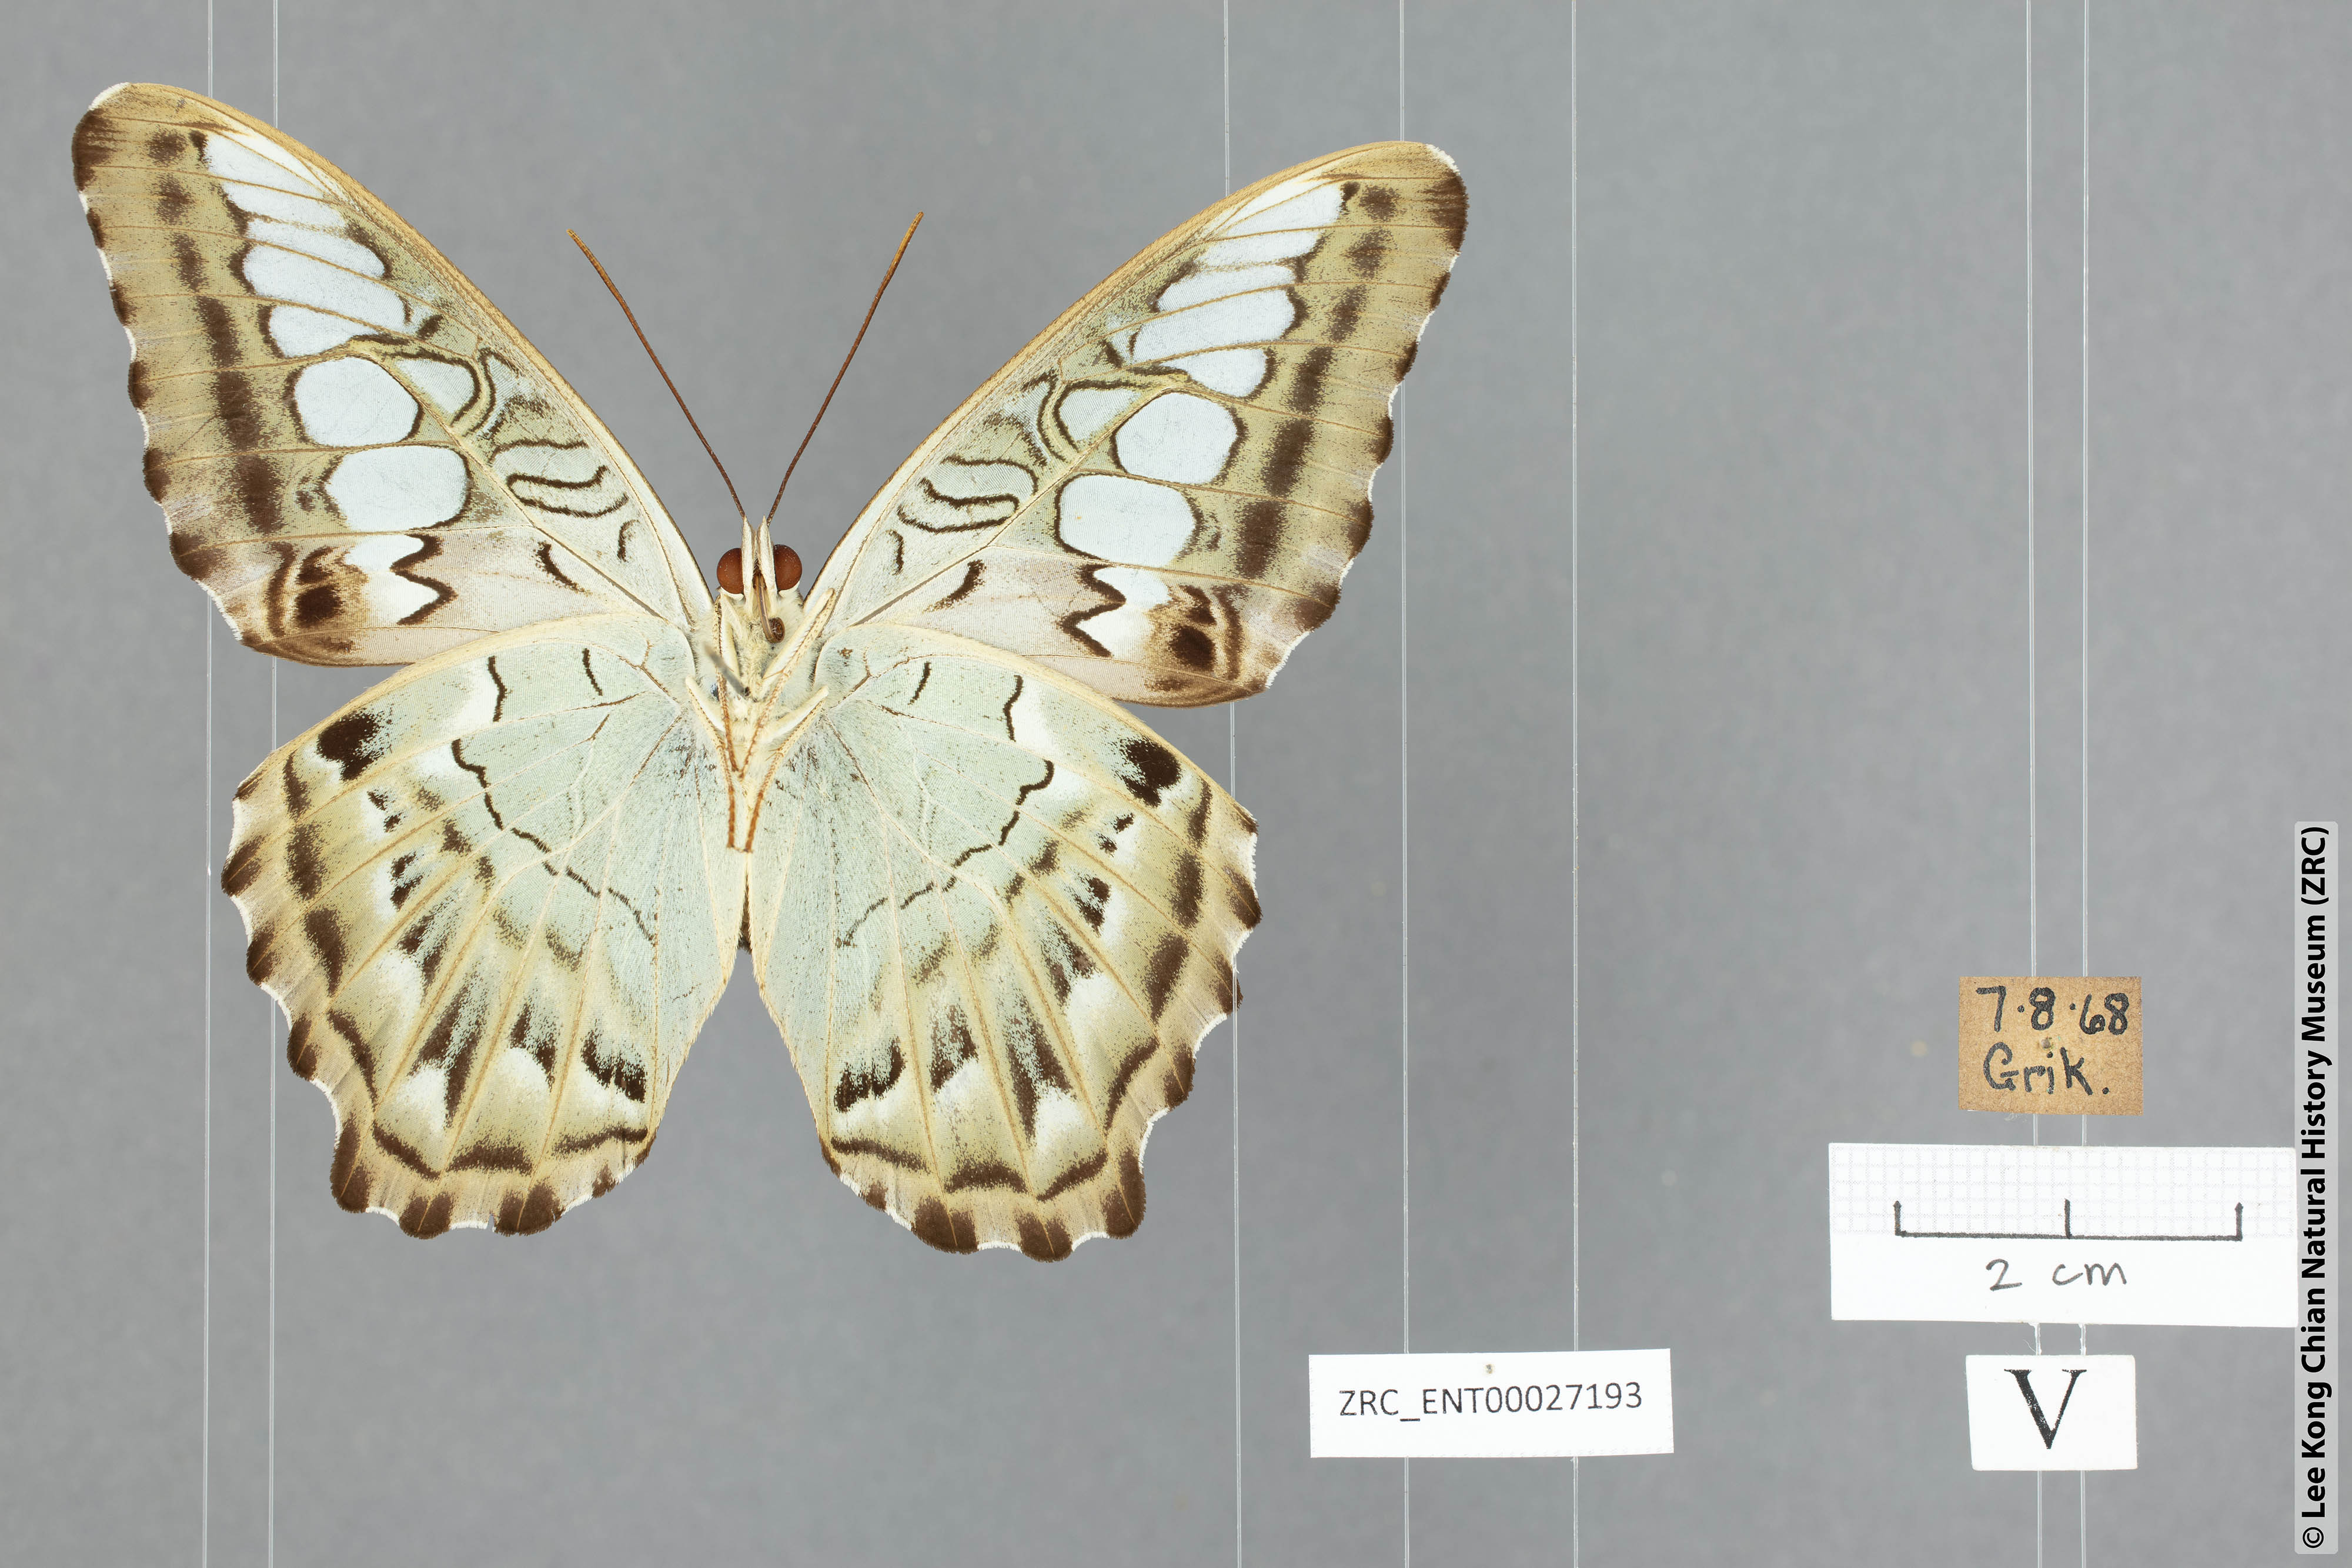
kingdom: Animalia
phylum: Arthropoda
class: Insecta
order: Lepidoptera
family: Nymphalidae
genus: Kallima
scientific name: Kallima sylvia
